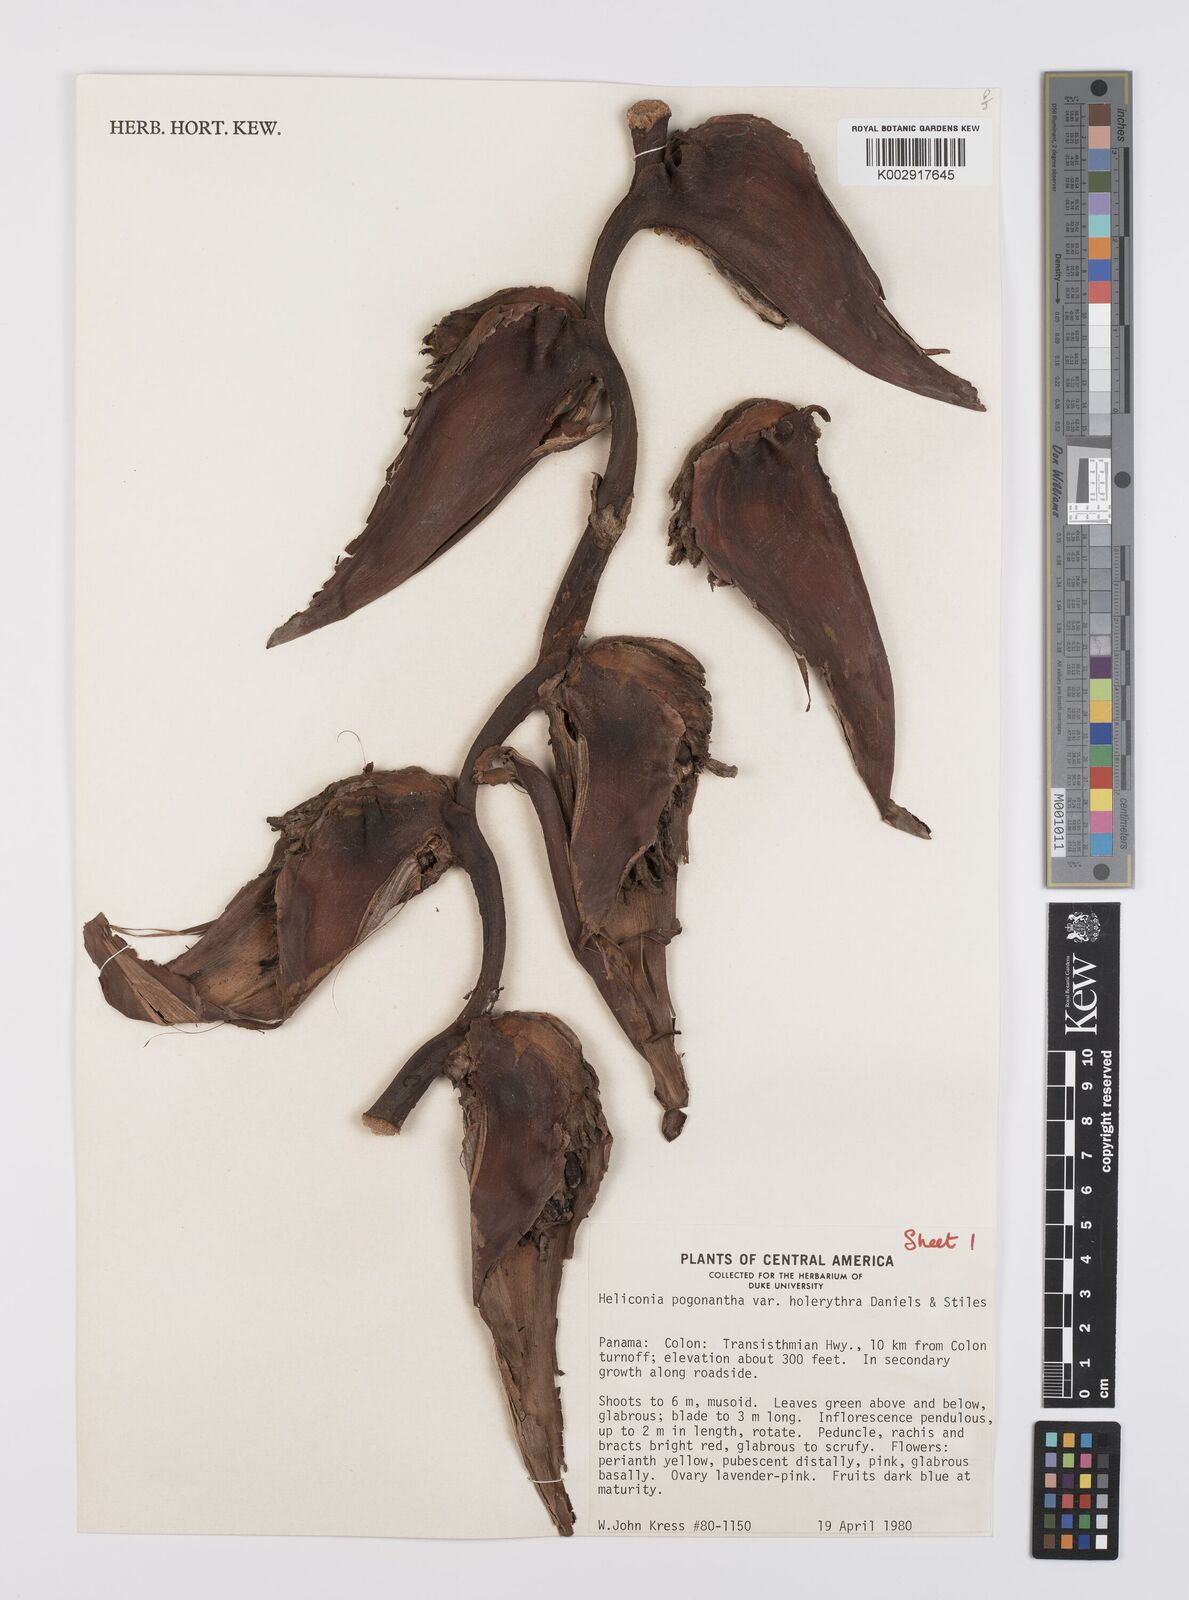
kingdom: Plantae
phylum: Tracheophyta
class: Liliopsida
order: Zingiberales
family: Heliconiaceae
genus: Heliconia
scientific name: Heliconia pogonantha
